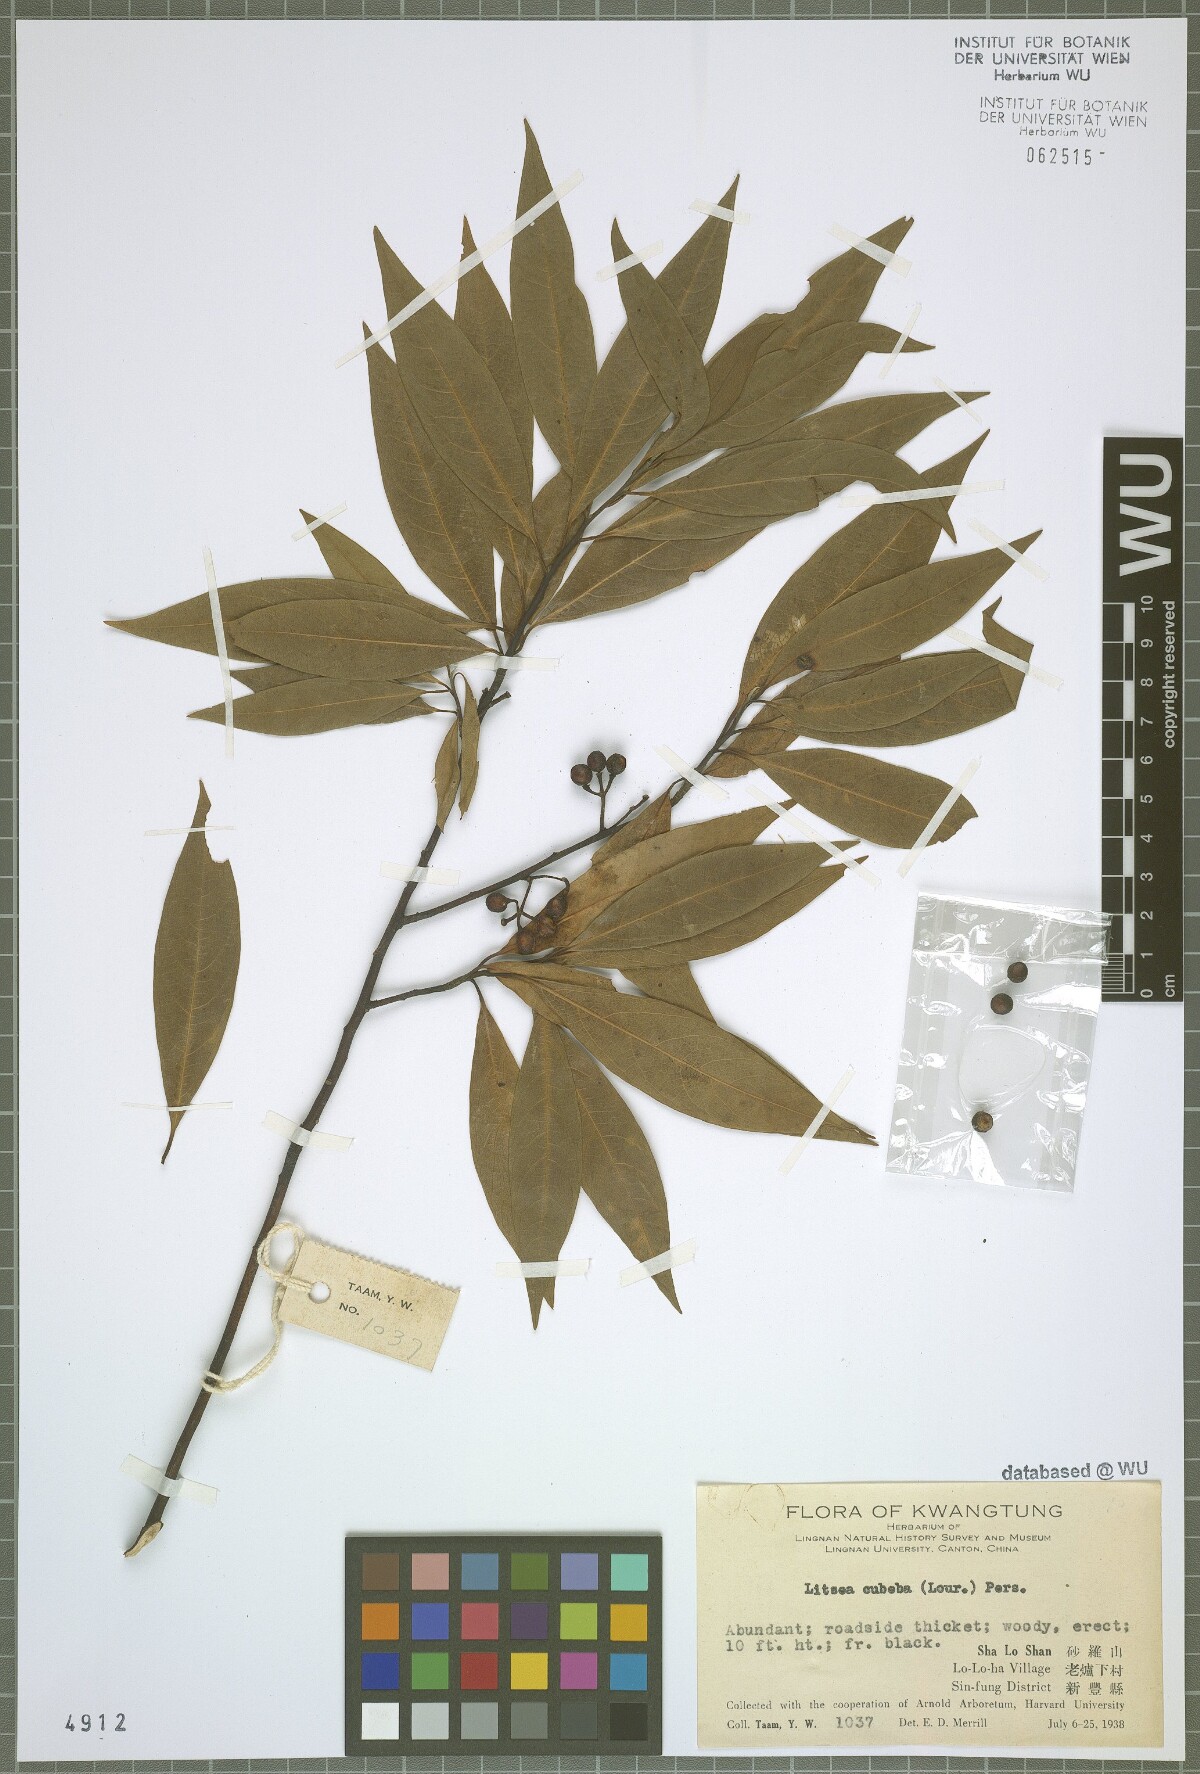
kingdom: Plantae
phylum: Tracheophyta
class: Magnoliopsida
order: Laurales
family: Lauraceae
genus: Litsea
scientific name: Litsea cubeba
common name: Mountain-pepper
